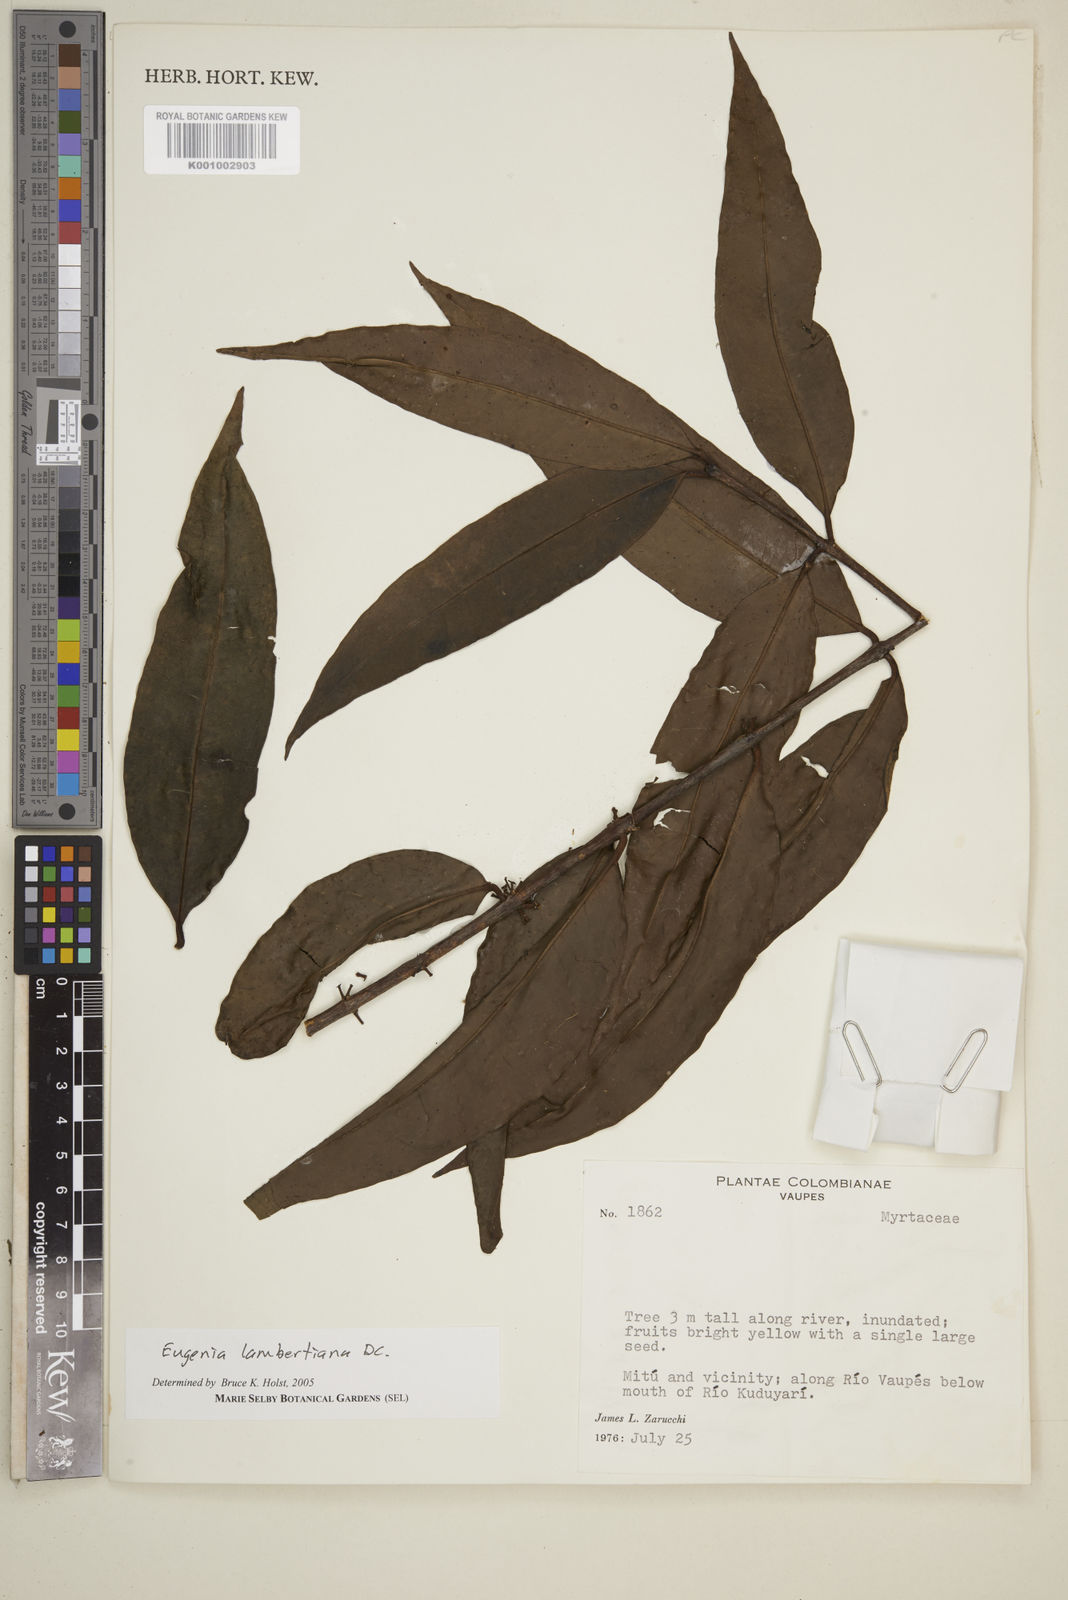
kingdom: Plantae
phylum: Tracheophyta
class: Magnoliopsida
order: Myrtales
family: Myrtaceae
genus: Eugenia
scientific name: Eugenia lambertiana
